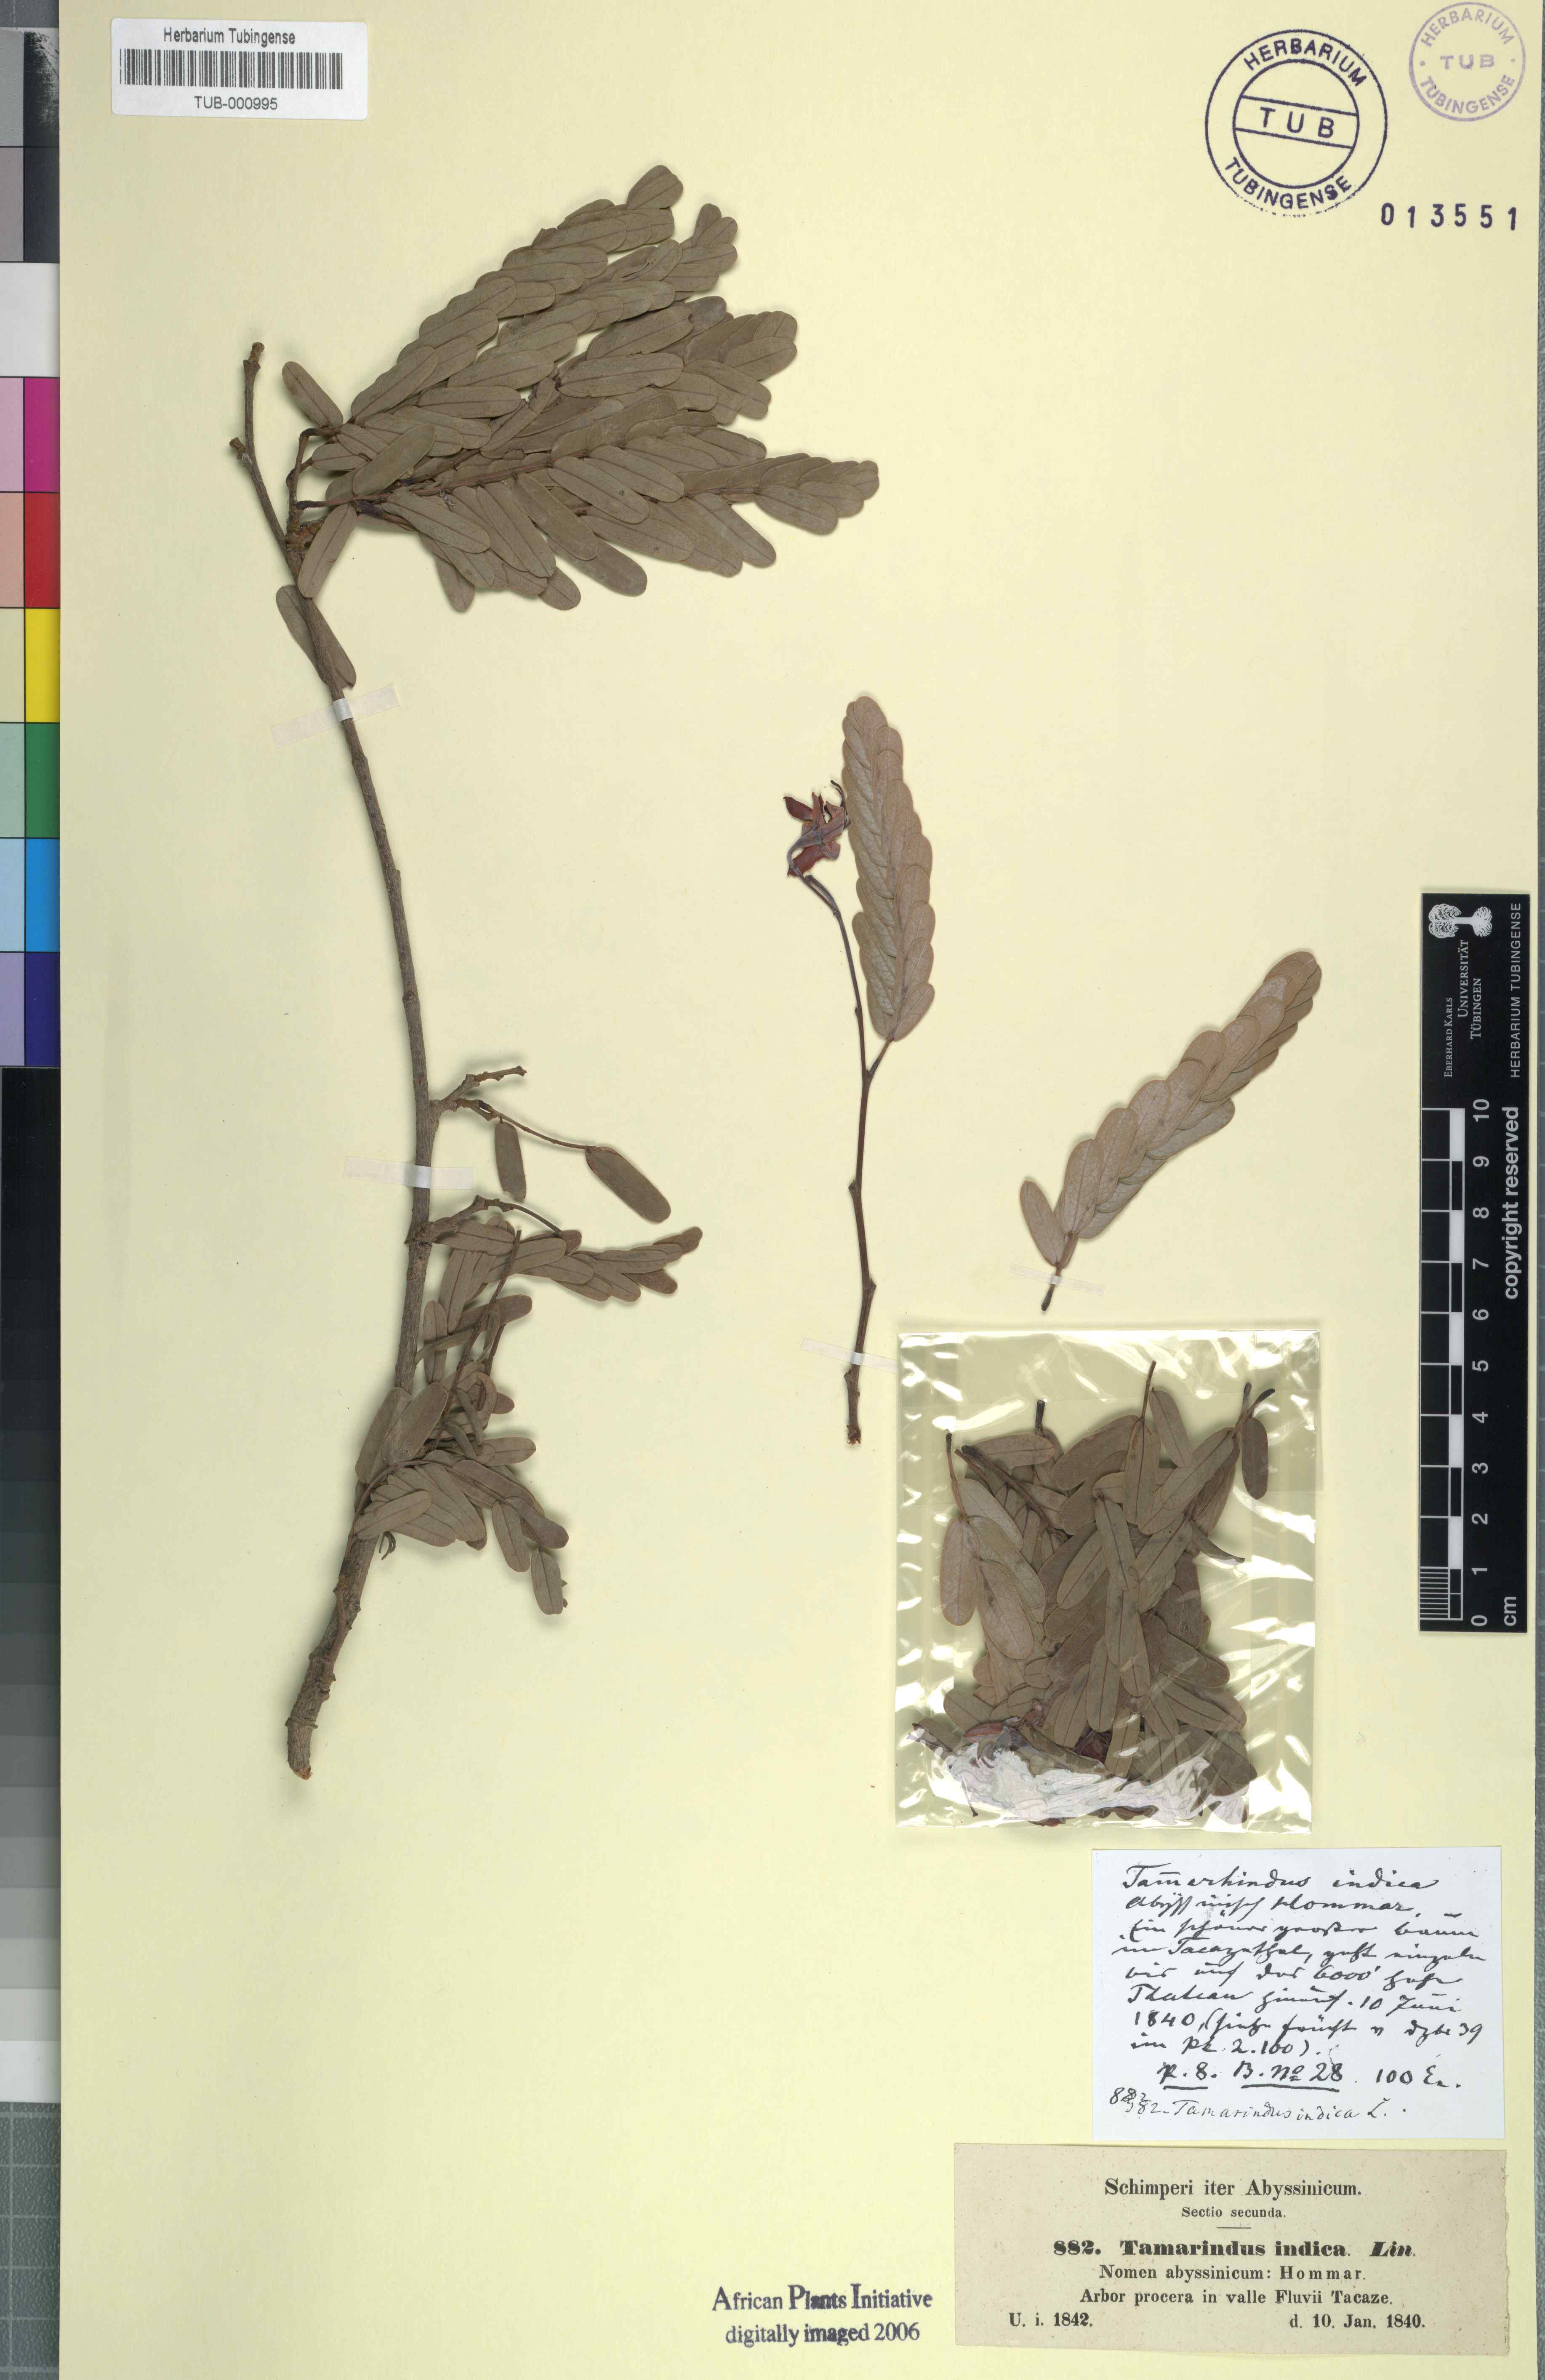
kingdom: Plantae
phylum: Tracheophyta
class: Magnoliopsida
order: Fabales
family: Fabaceae
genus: Tamarindus
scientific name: Tamarindus indica
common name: Tamarind
